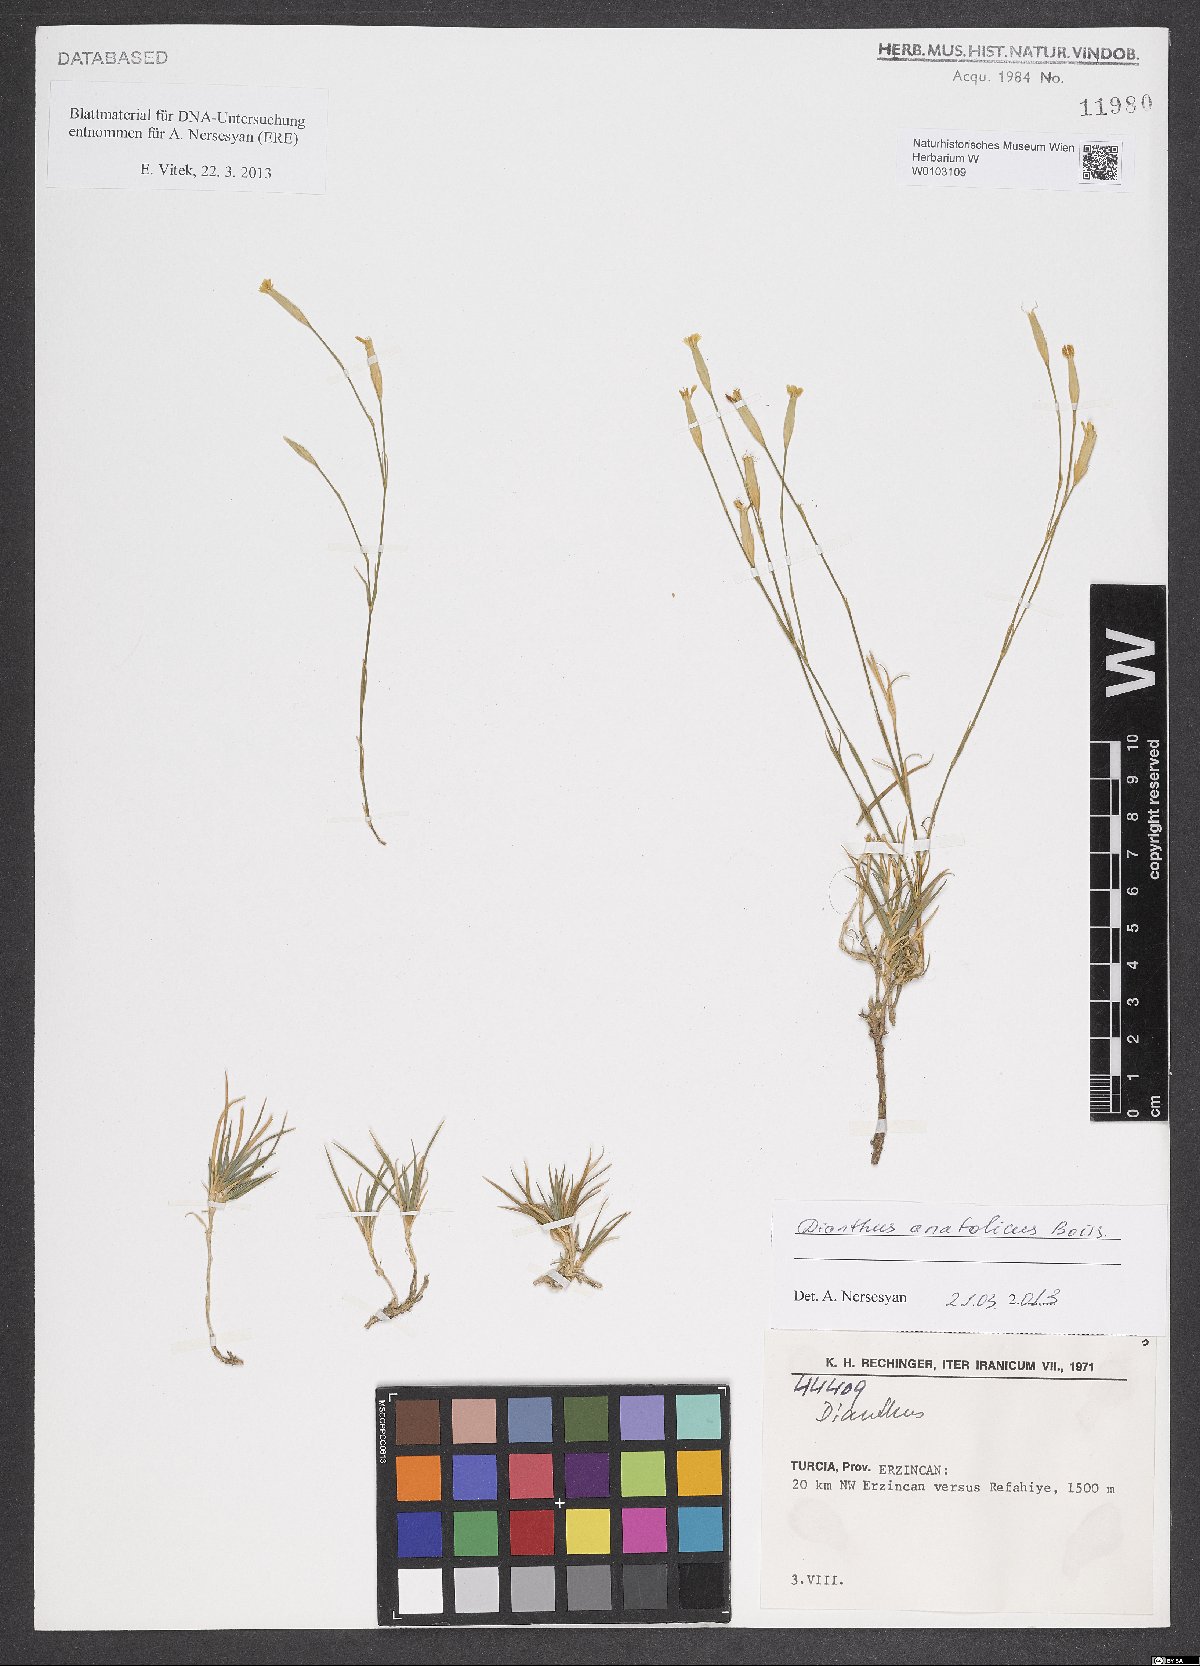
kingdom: Plantae
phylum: Tracheophyta
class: Magnoliopsida
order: Caryophyllales
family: Caryophyllaceae
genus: Dianthus
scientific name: Dianthus anatolicus
